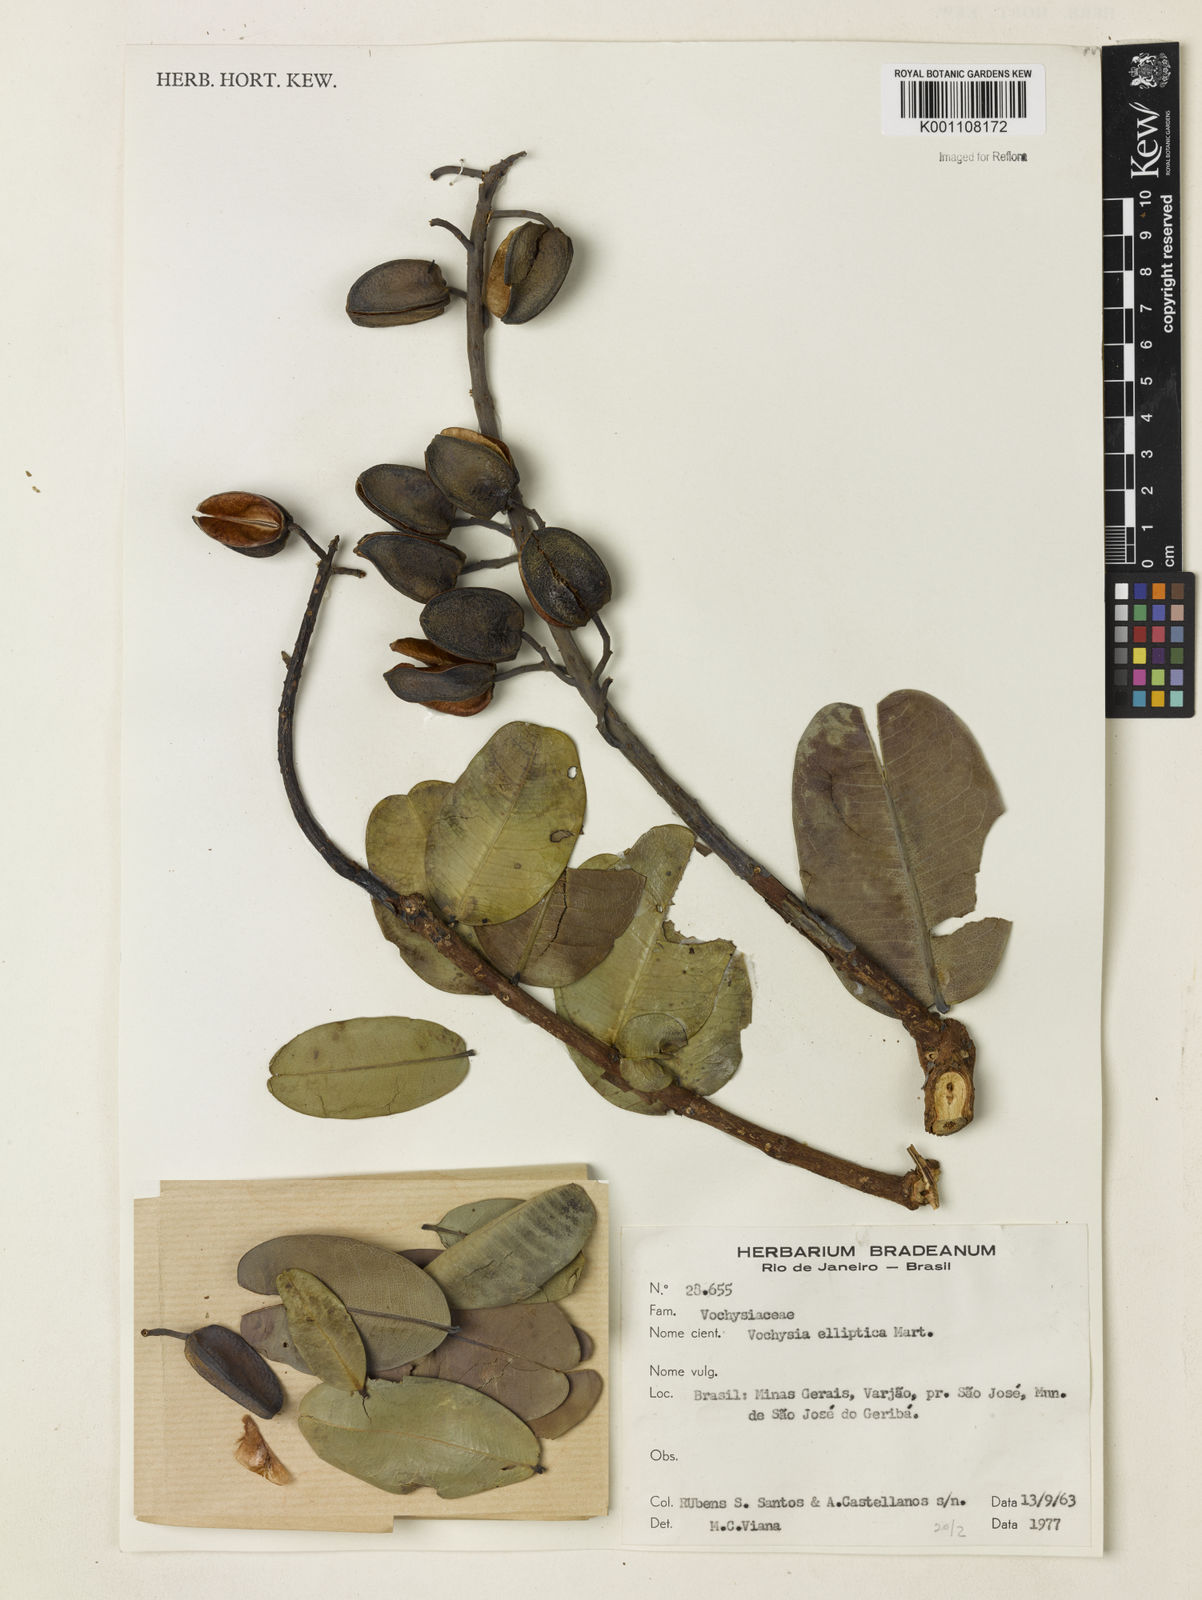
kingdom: Plantae
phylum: Tracheophyta
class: Magnoliopsida
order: Myrtales
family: Vochysiaceae
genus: Vochysia
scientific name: Vochysia elliptica
